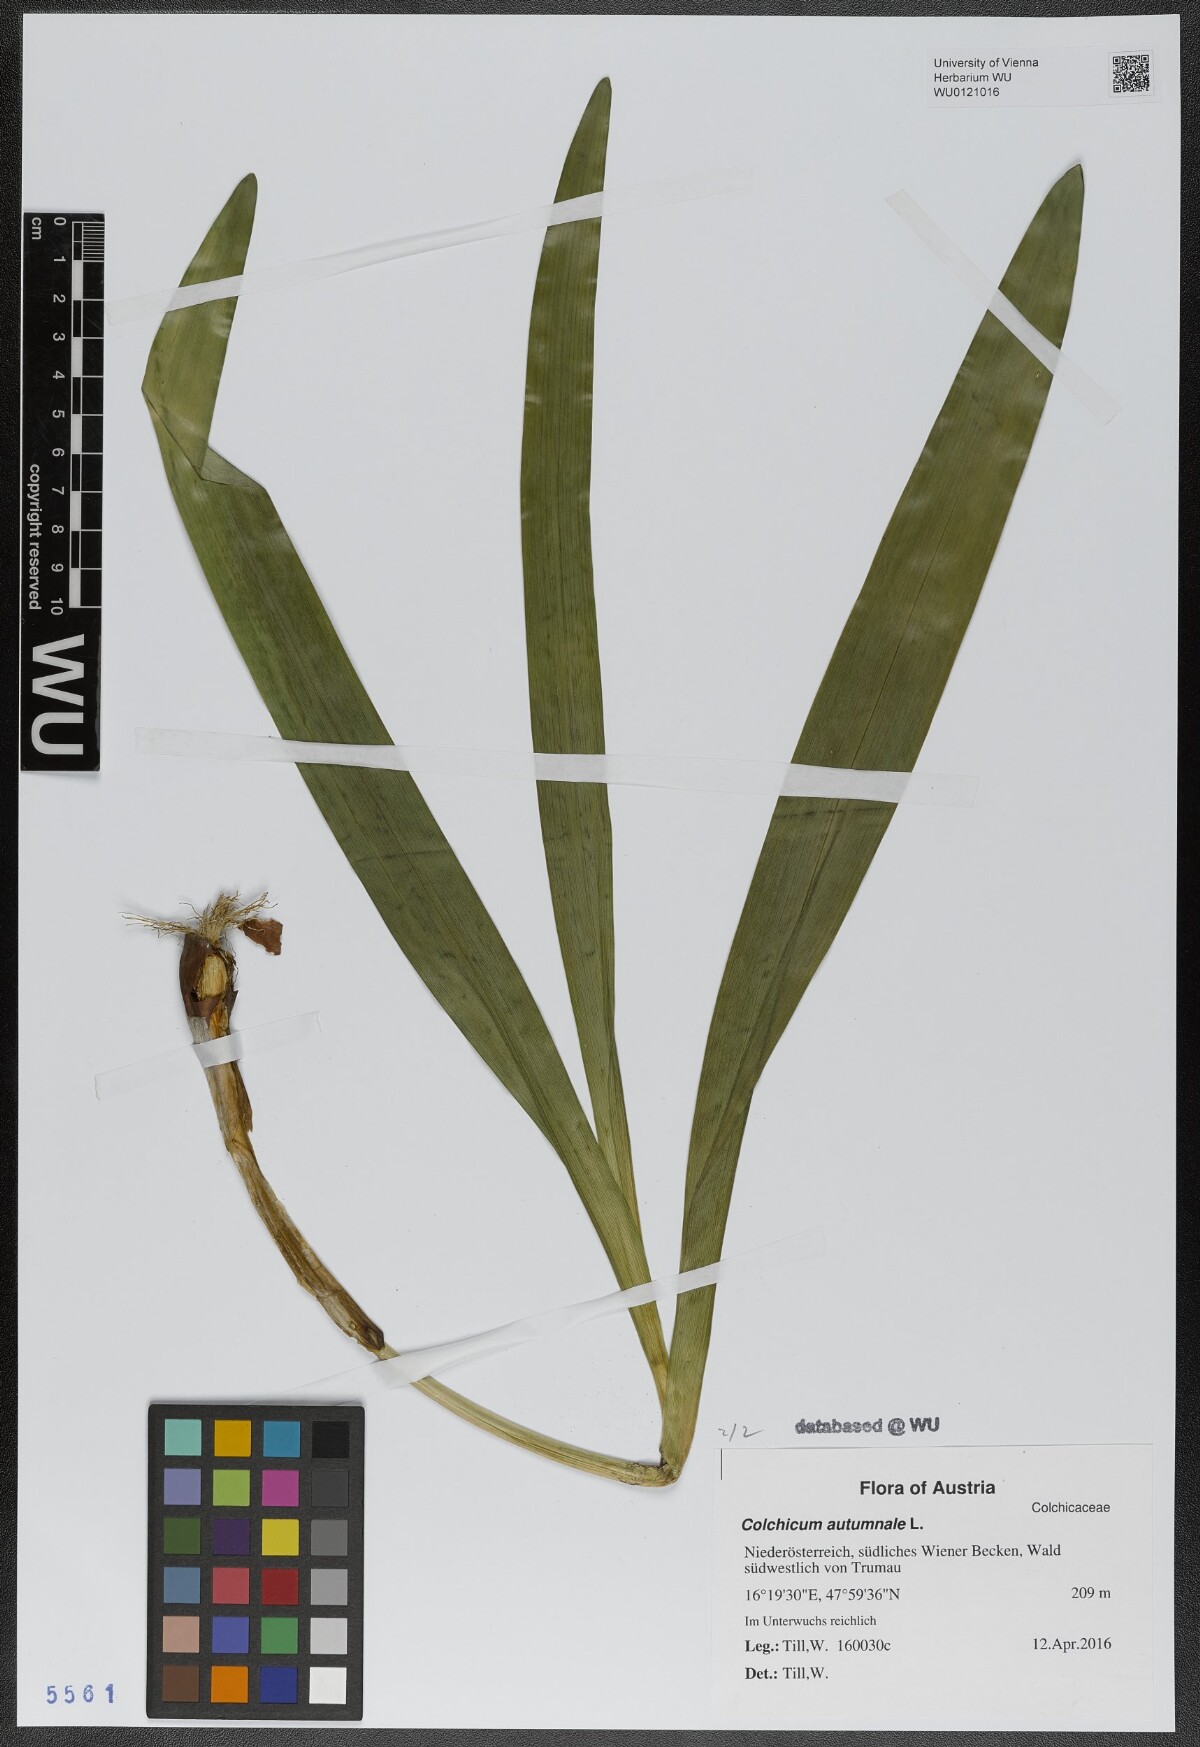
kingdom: Plantae
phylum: Tracheophyta
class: Liliopsida
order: Liliales
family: Colchicaceae
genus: Colchicum
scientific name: Colchicum autumnale
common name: Autumn crocus
